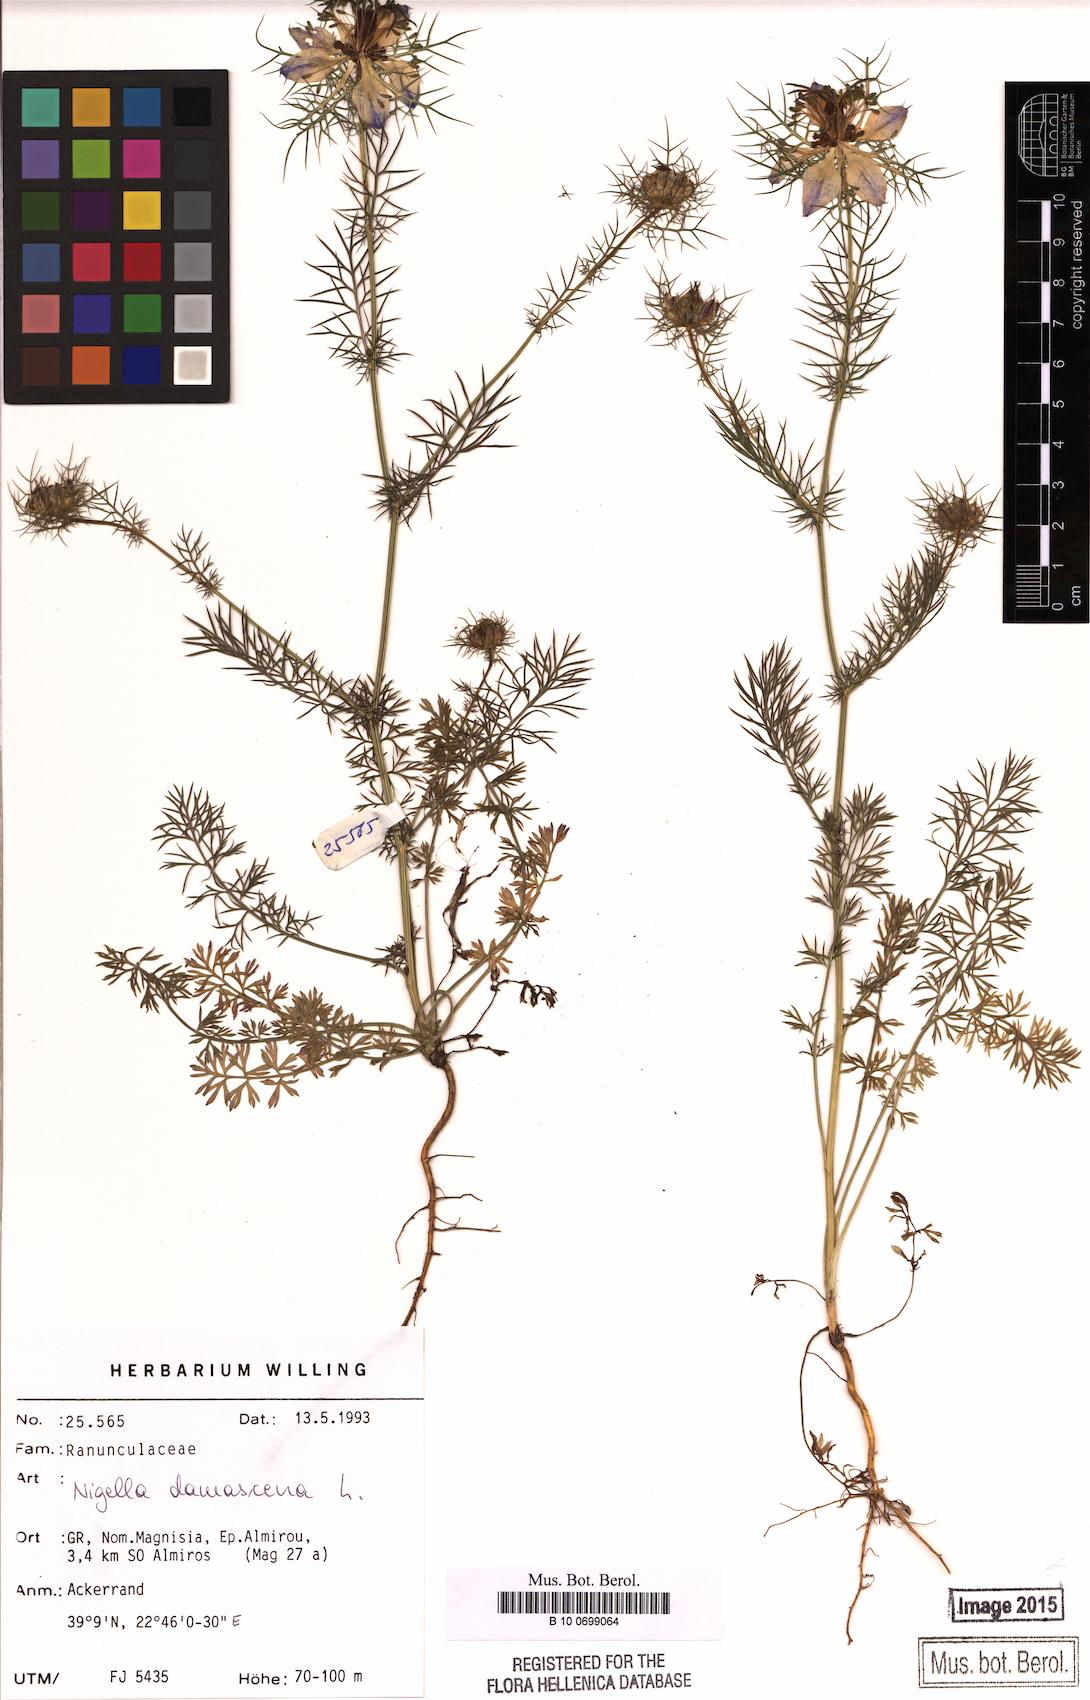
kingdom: Plantae
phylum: Tracheophyta
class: Magnoliopsida
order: Ranunculales
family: Ranunculaceae
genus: Nigella
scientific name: Nigella damascena
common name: Love-in-a-mist
